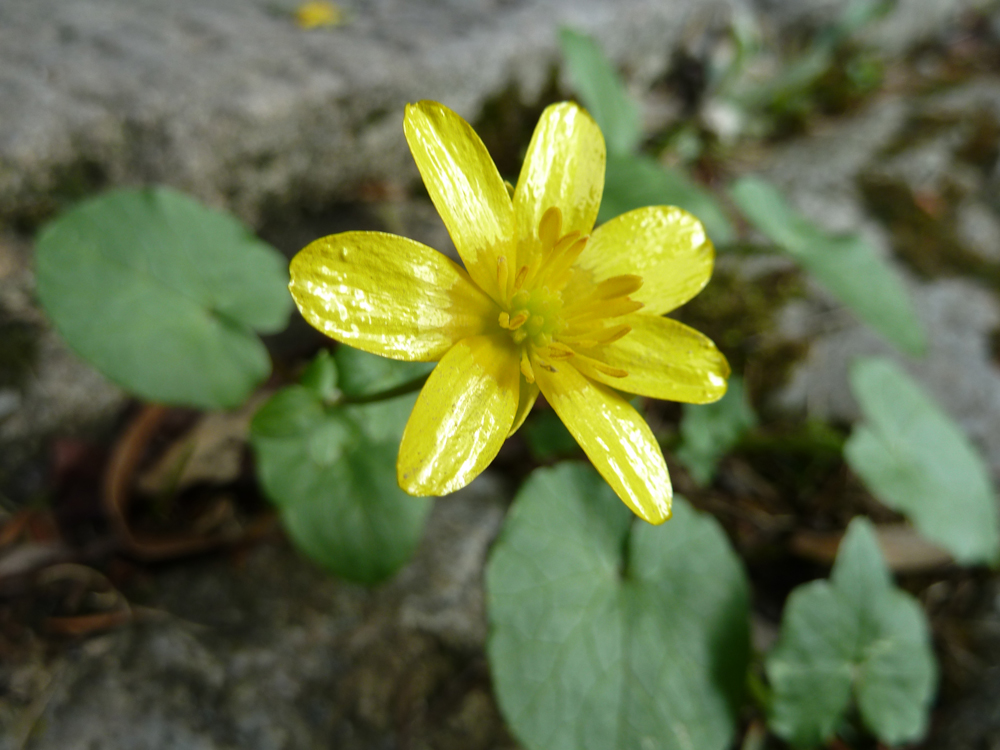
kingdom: Plantae
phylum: Tracheophyta
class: Magnoliopsida
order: Ranunculales
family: Ranunculaceae
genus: Ficaria
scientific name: Ficaria verna
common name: Lesser celandine
